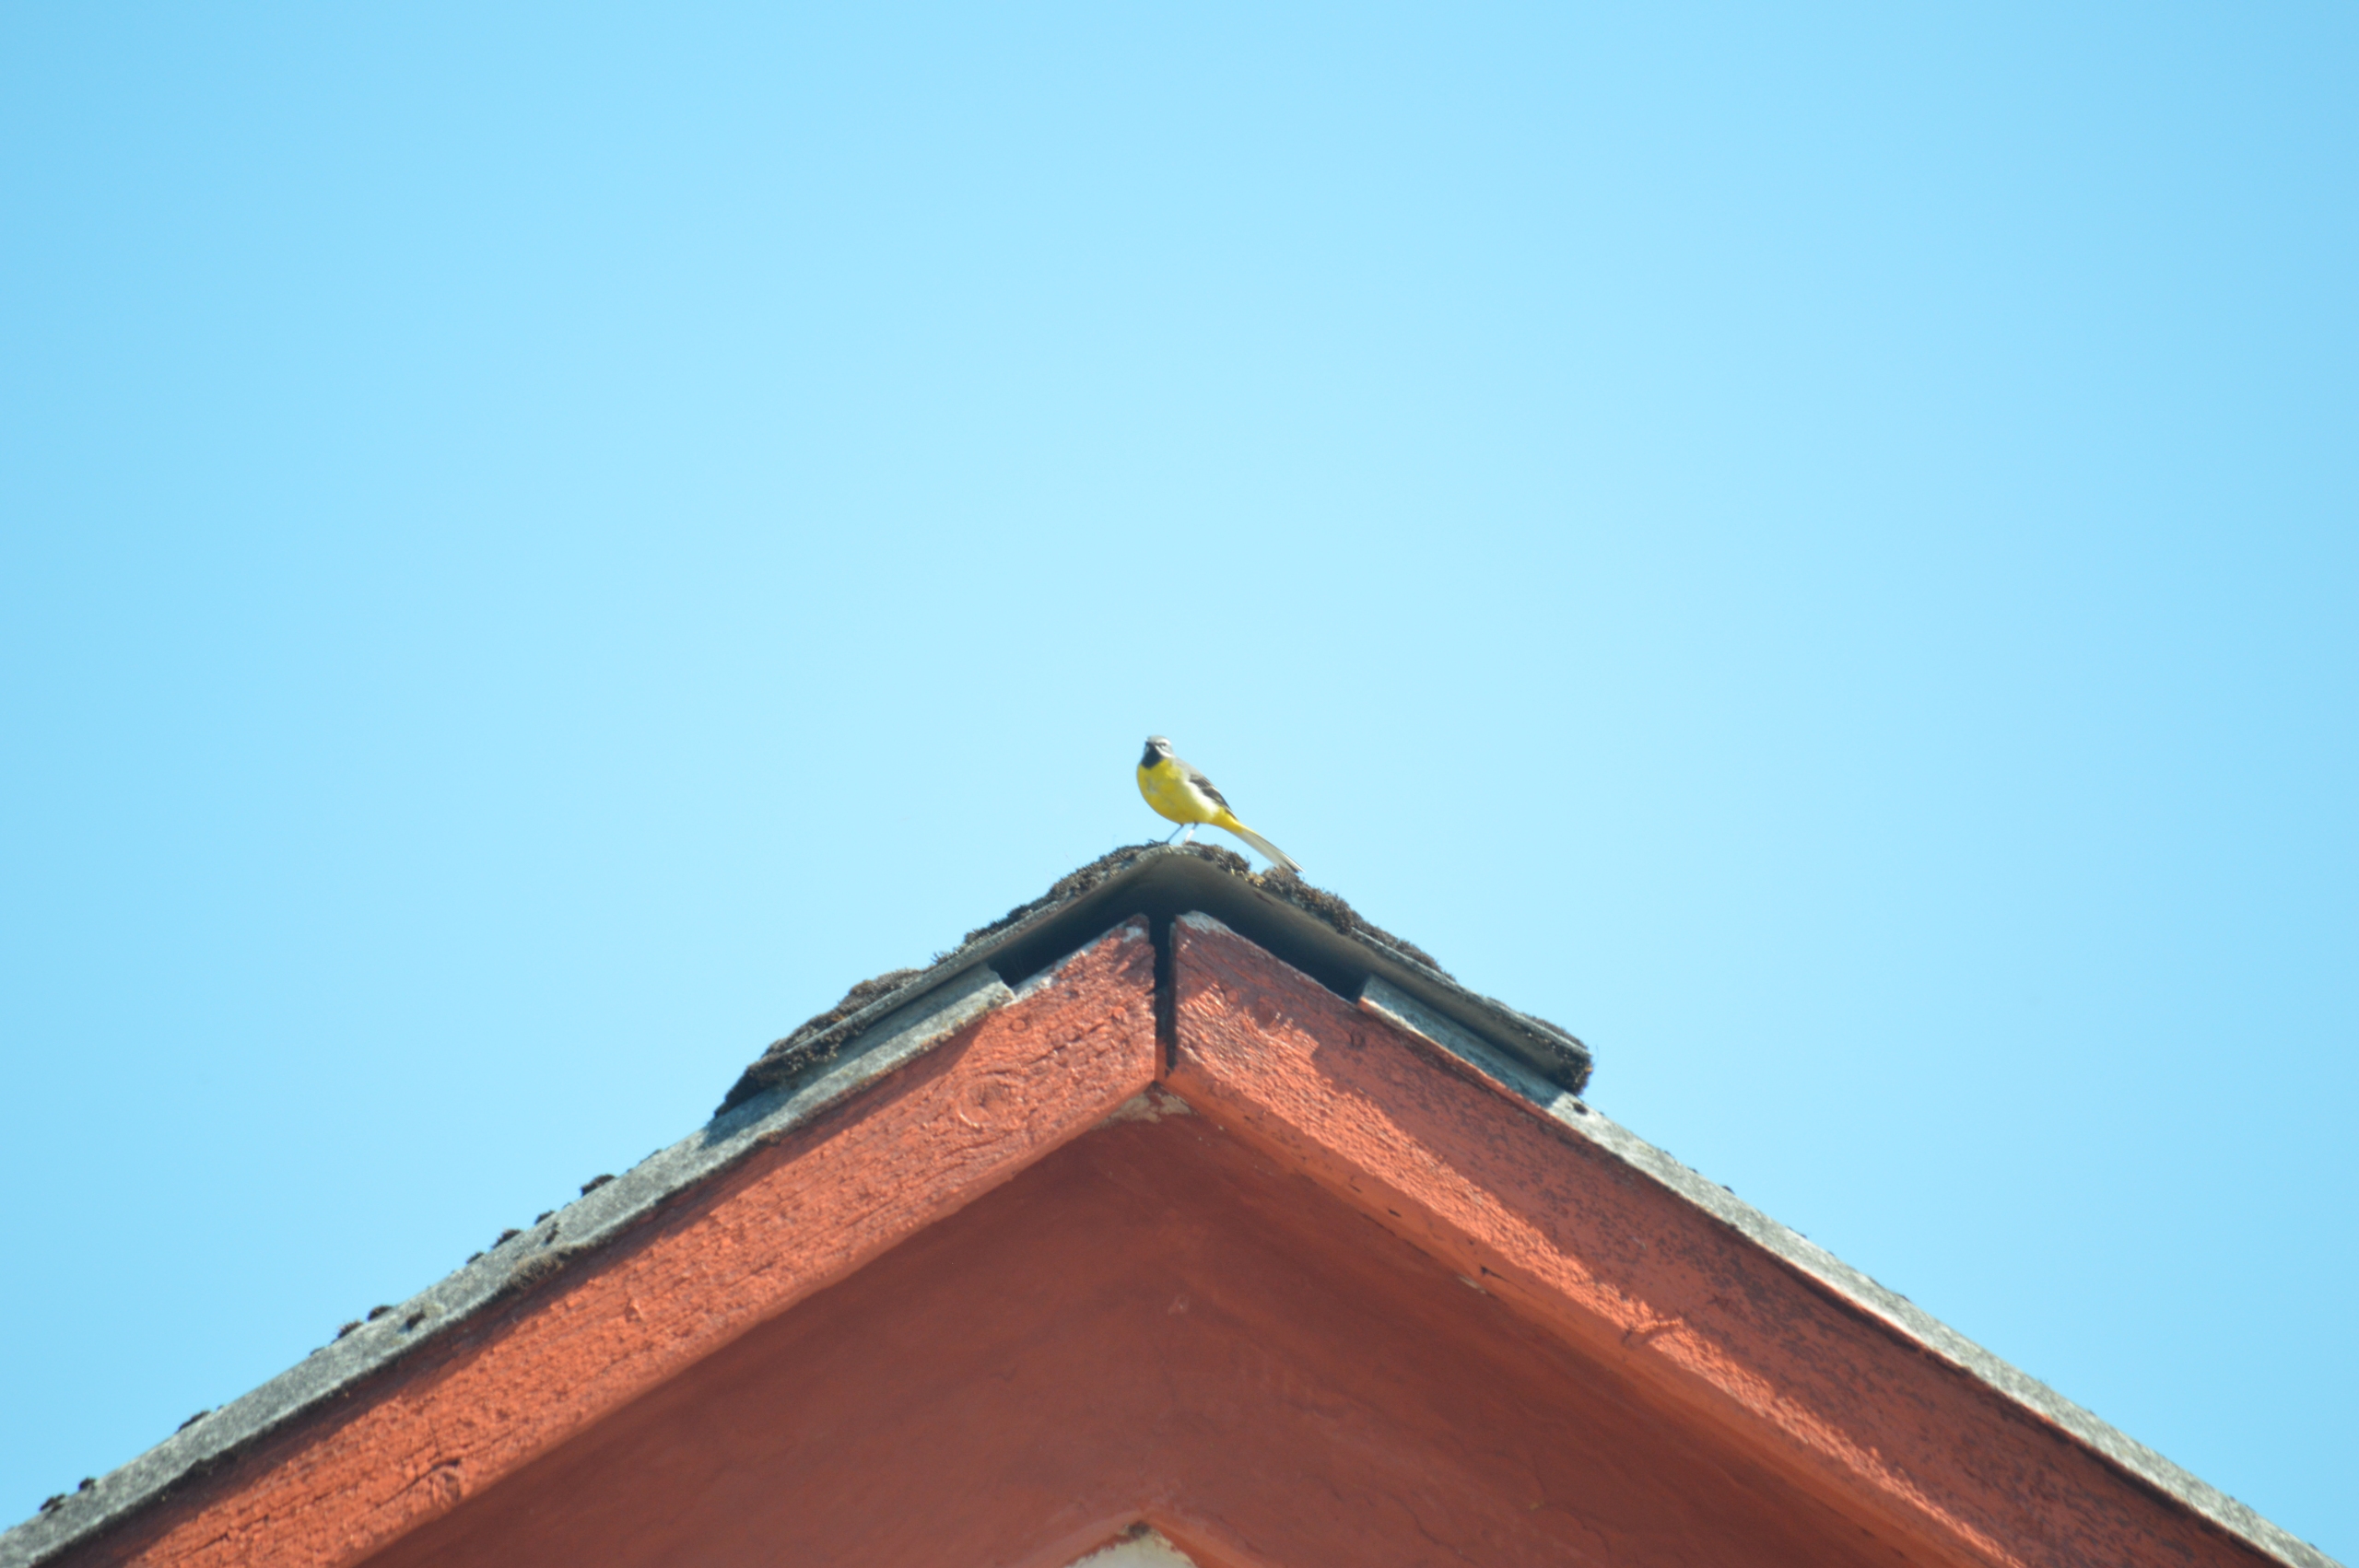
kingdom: Animalia
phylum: Chordata
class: Aves
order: Passeriformes
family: Motacillidae
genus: Motacilla
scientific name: Motacilla cinerea
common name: Bjergvipstjert
